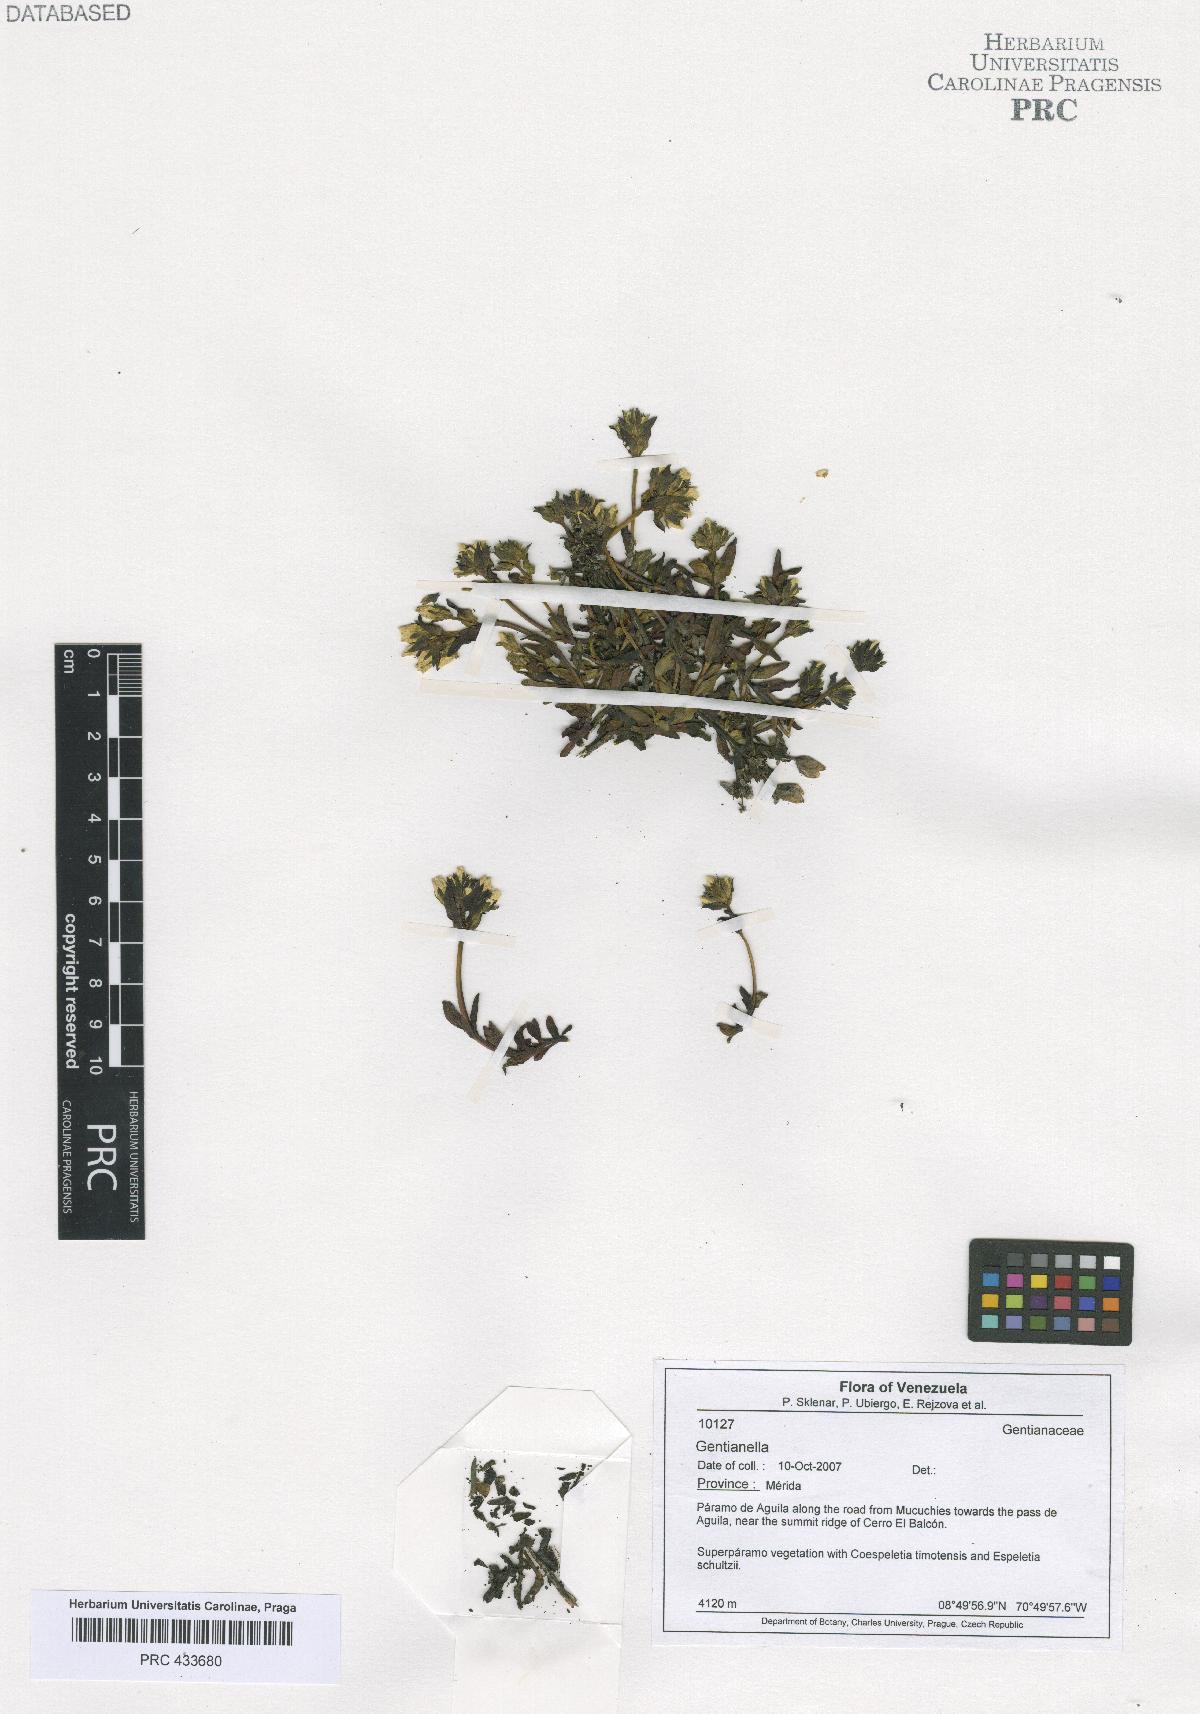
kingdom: Plantae
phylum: Tracheophyta
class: Magnoliopsida
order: Gentianales
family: Gentianaceae
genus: Gentianella
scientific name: Gentianella
